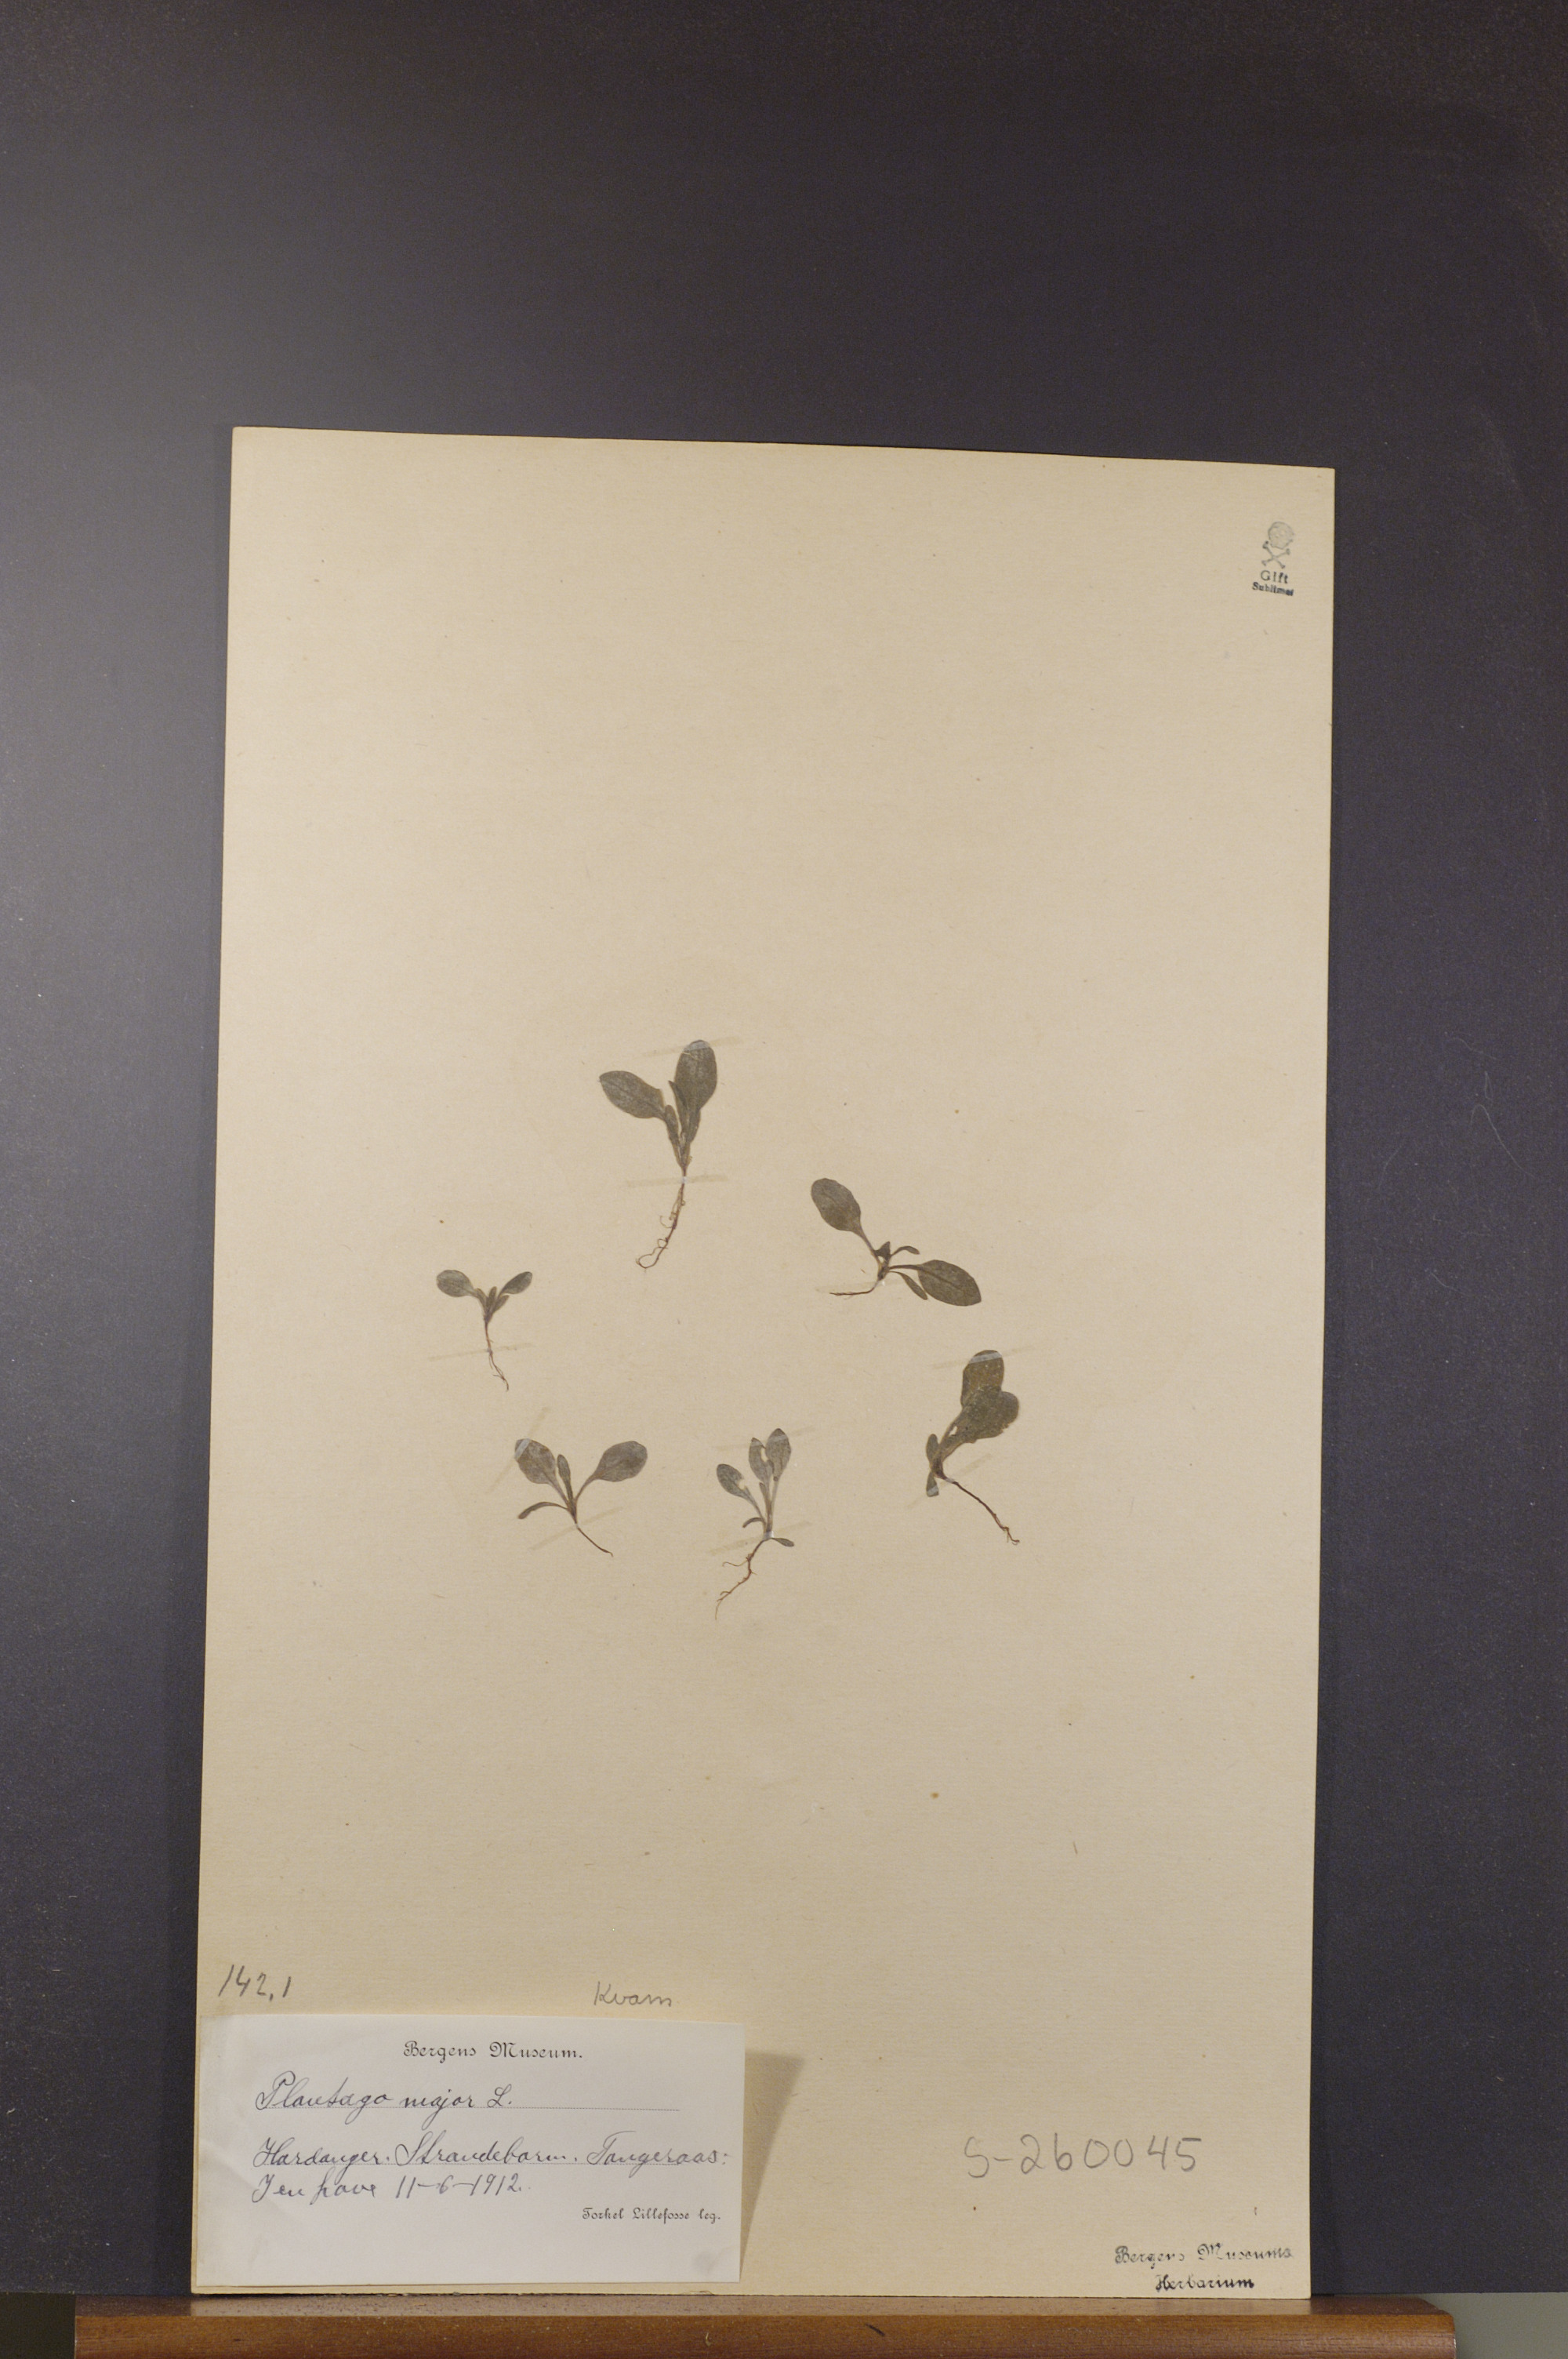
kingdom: Plantae
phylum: Tracheophyta
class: Magnoliopsida
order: Lamiales
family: Plantaginaceae
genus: Plantago
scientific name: Plantago major
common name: Common plantain
